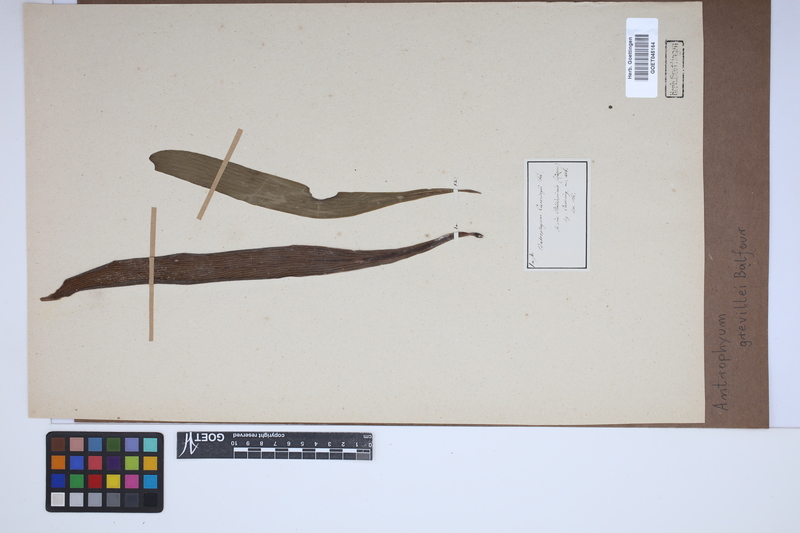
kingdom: Plantae
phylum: Tracheophyta
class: Polypodiopsida
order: Polypodiales
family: Pteridaceae
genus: Antrophyum
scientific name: Antrophyum plantagineum
